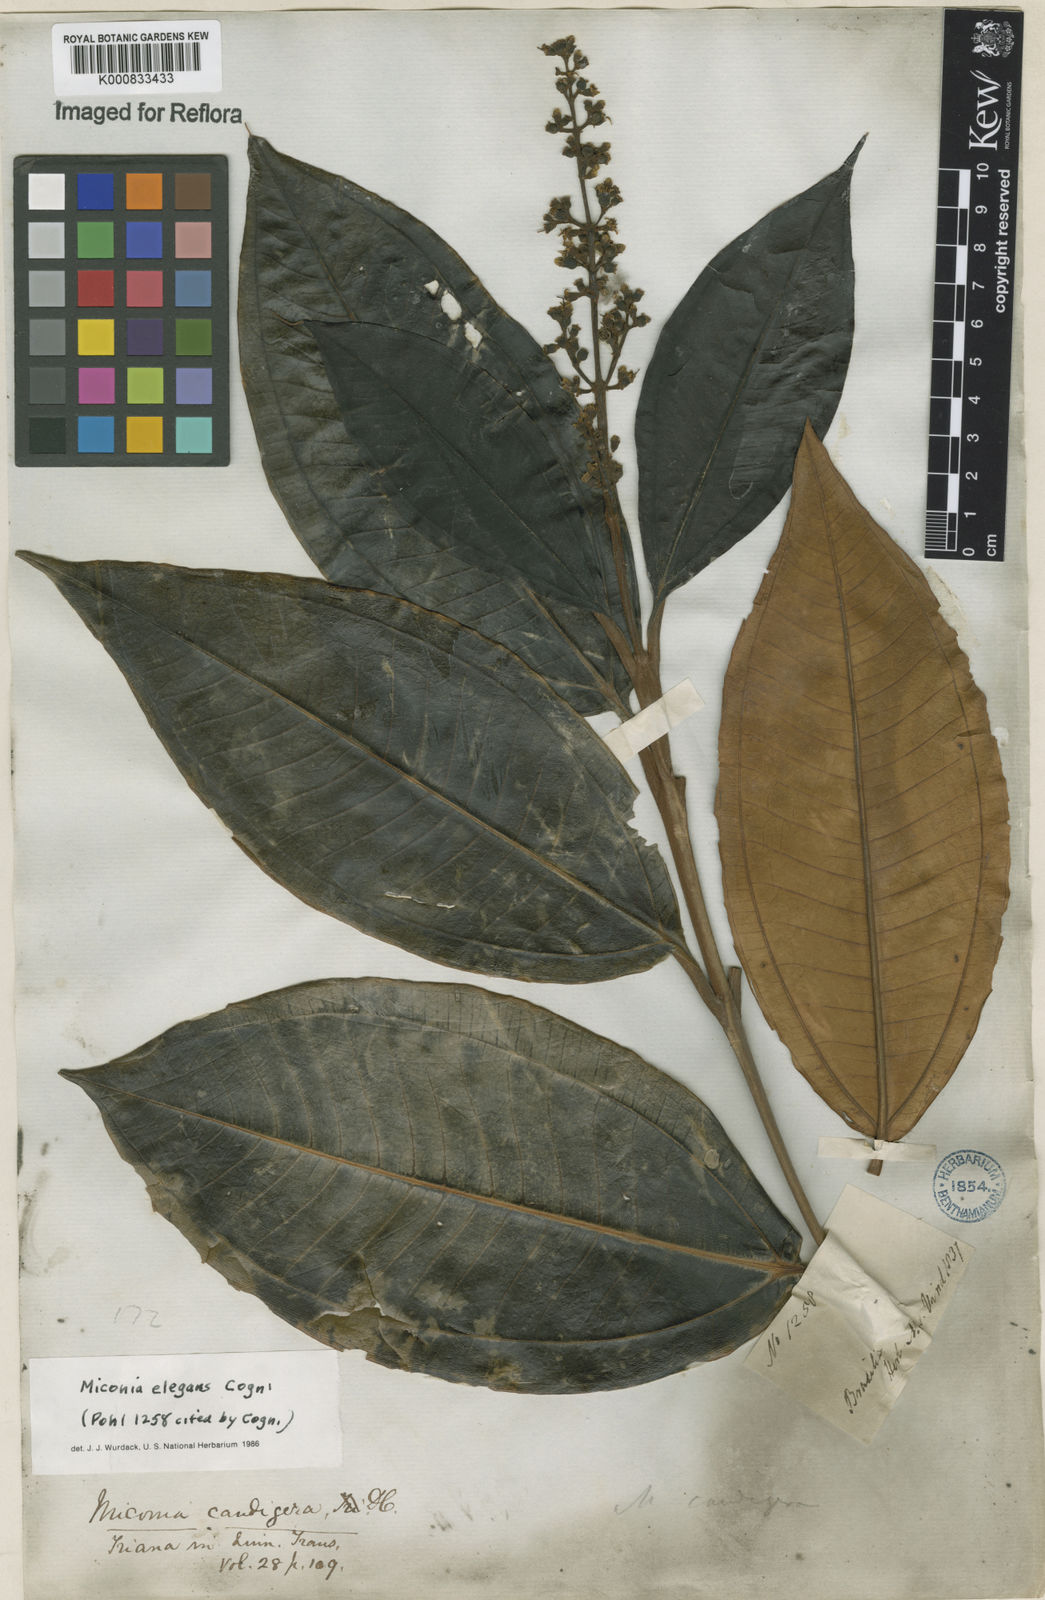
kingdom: Plantae
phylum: Tracheophyta
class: Magnoliopsida
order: Myrtales
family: Melastomataceae
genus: Miconia
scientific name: Miconia elegans
